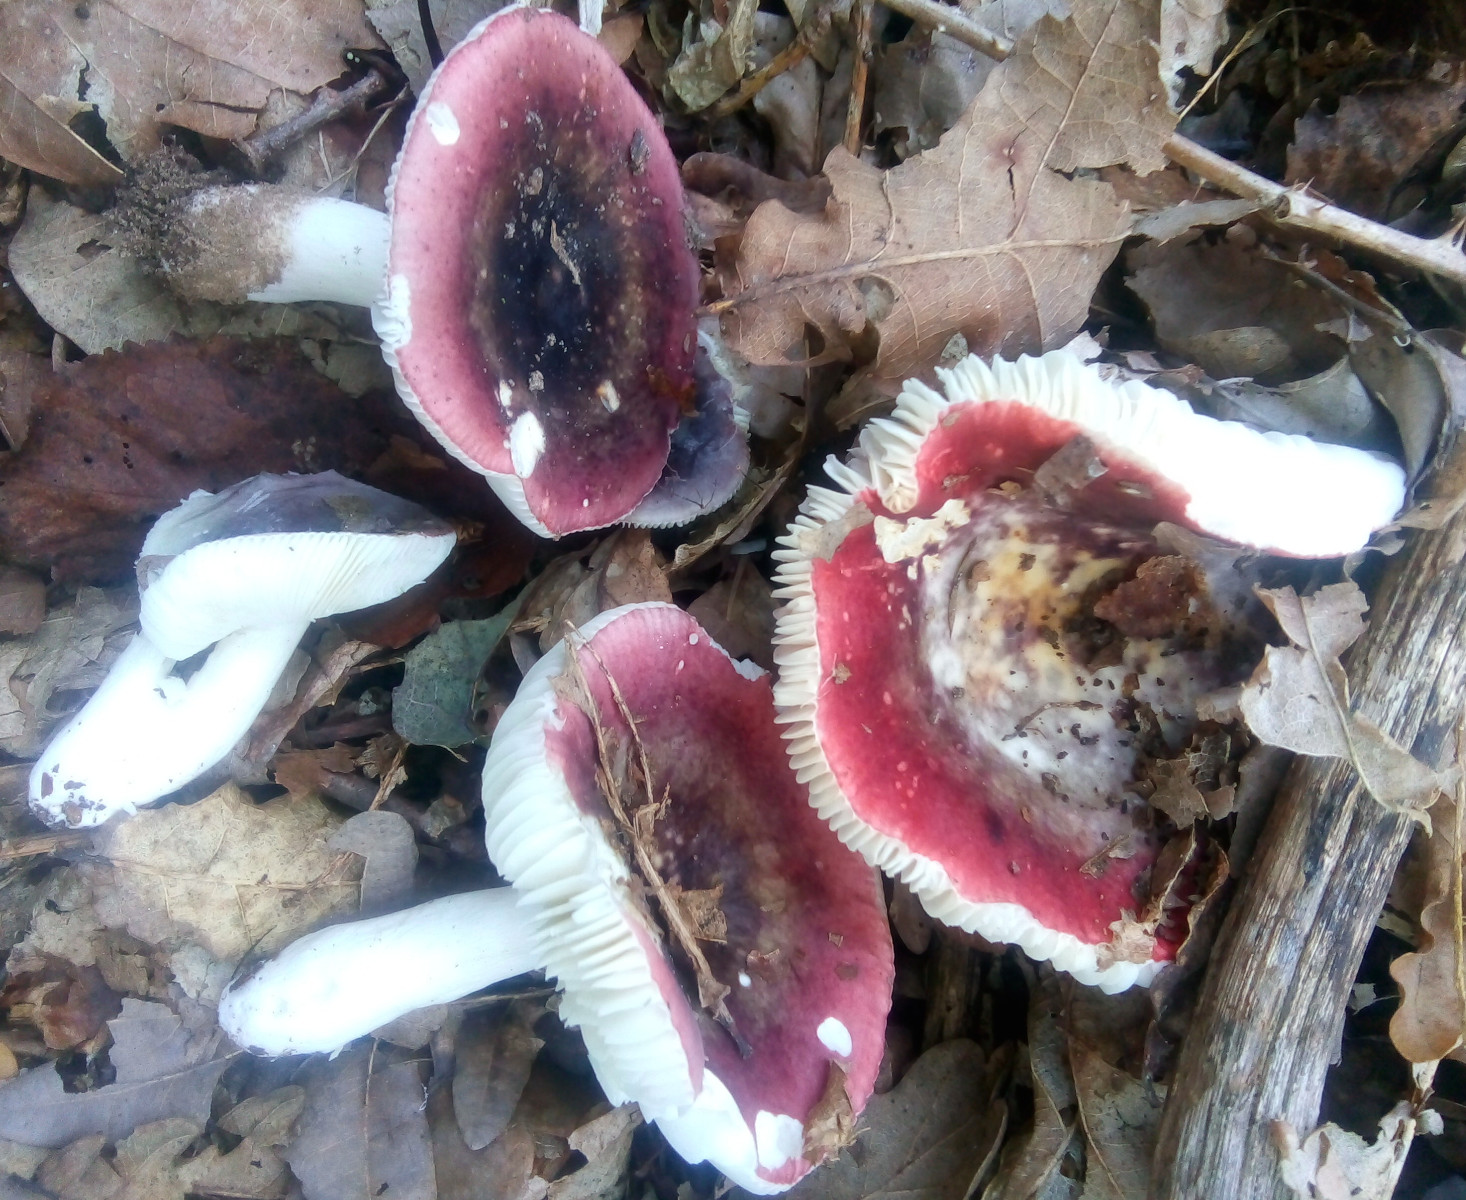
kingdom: Fungi
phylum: Basidiomycota
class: Agaricomycetes
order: Russulales
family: Russulaceae
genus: Russula
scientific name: Russula fragilis
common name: Fragile brittlegill
